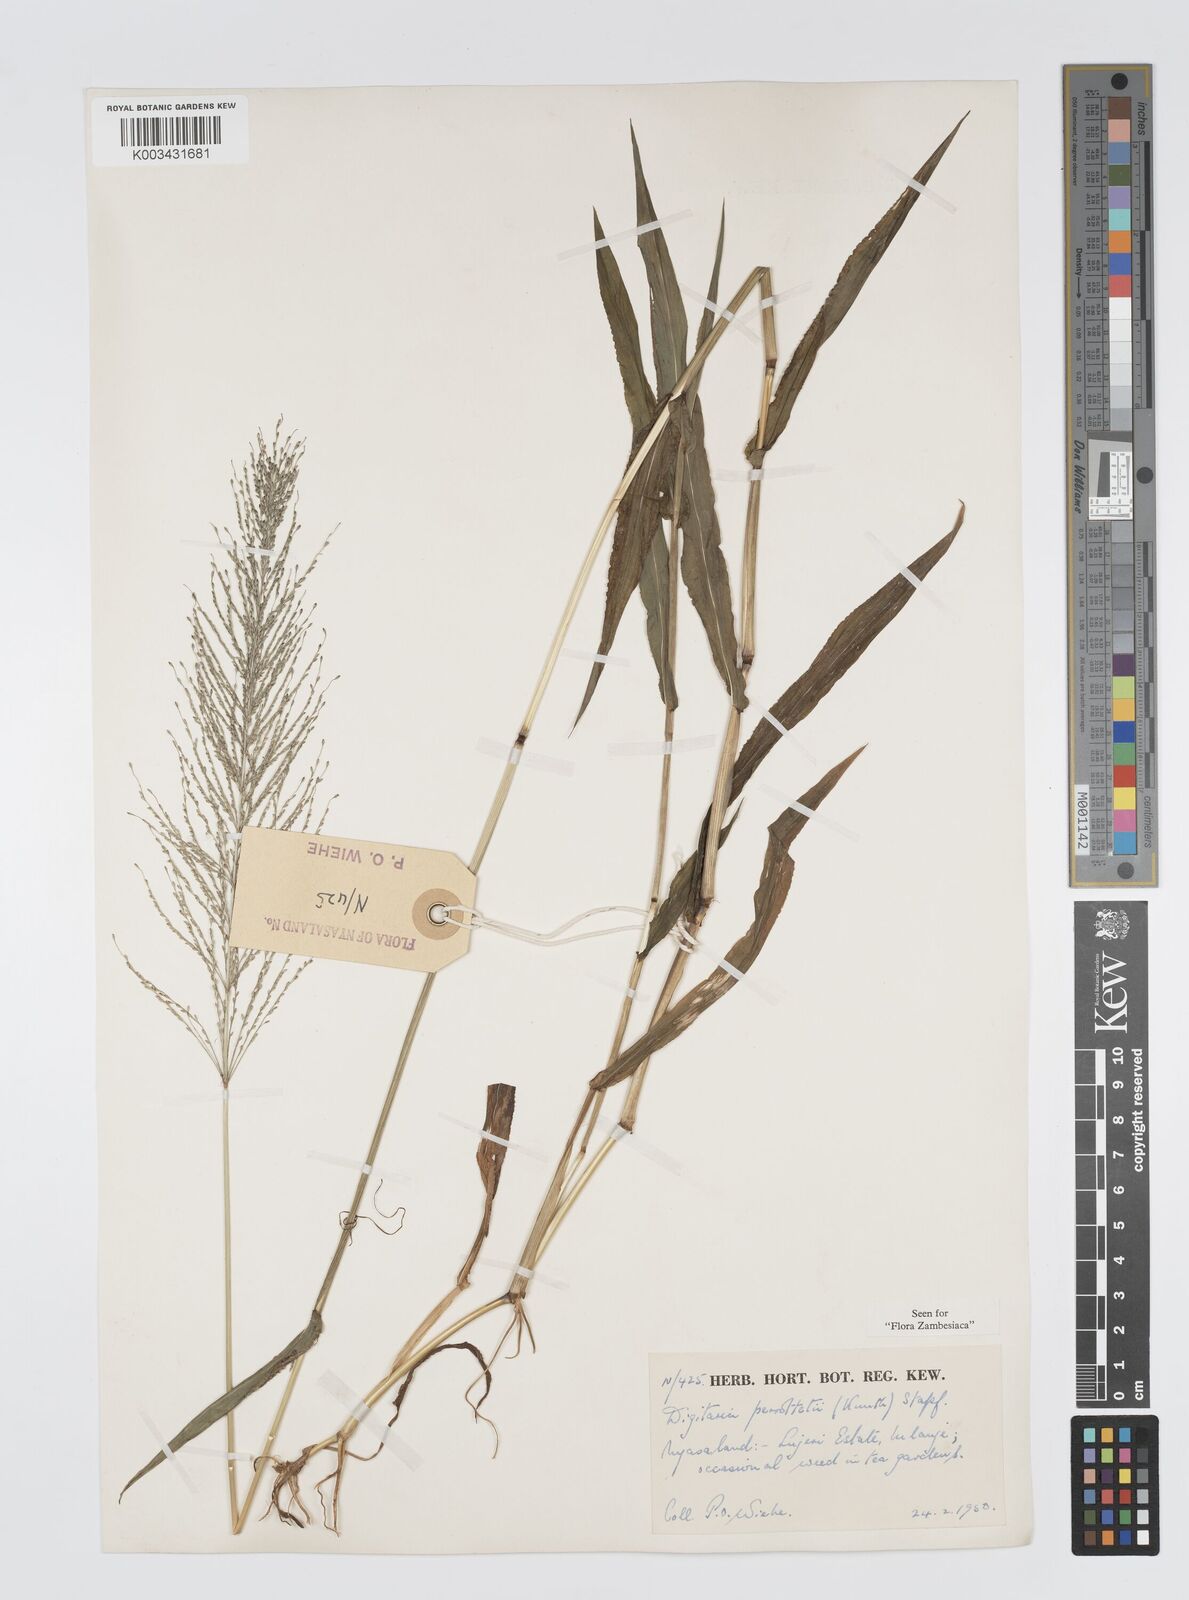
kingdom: Plantae
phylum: Tracheophyta
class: Liliopsida
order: Poales
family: Poaceae
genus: Digitaria
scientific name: Digitaria perrottetii
